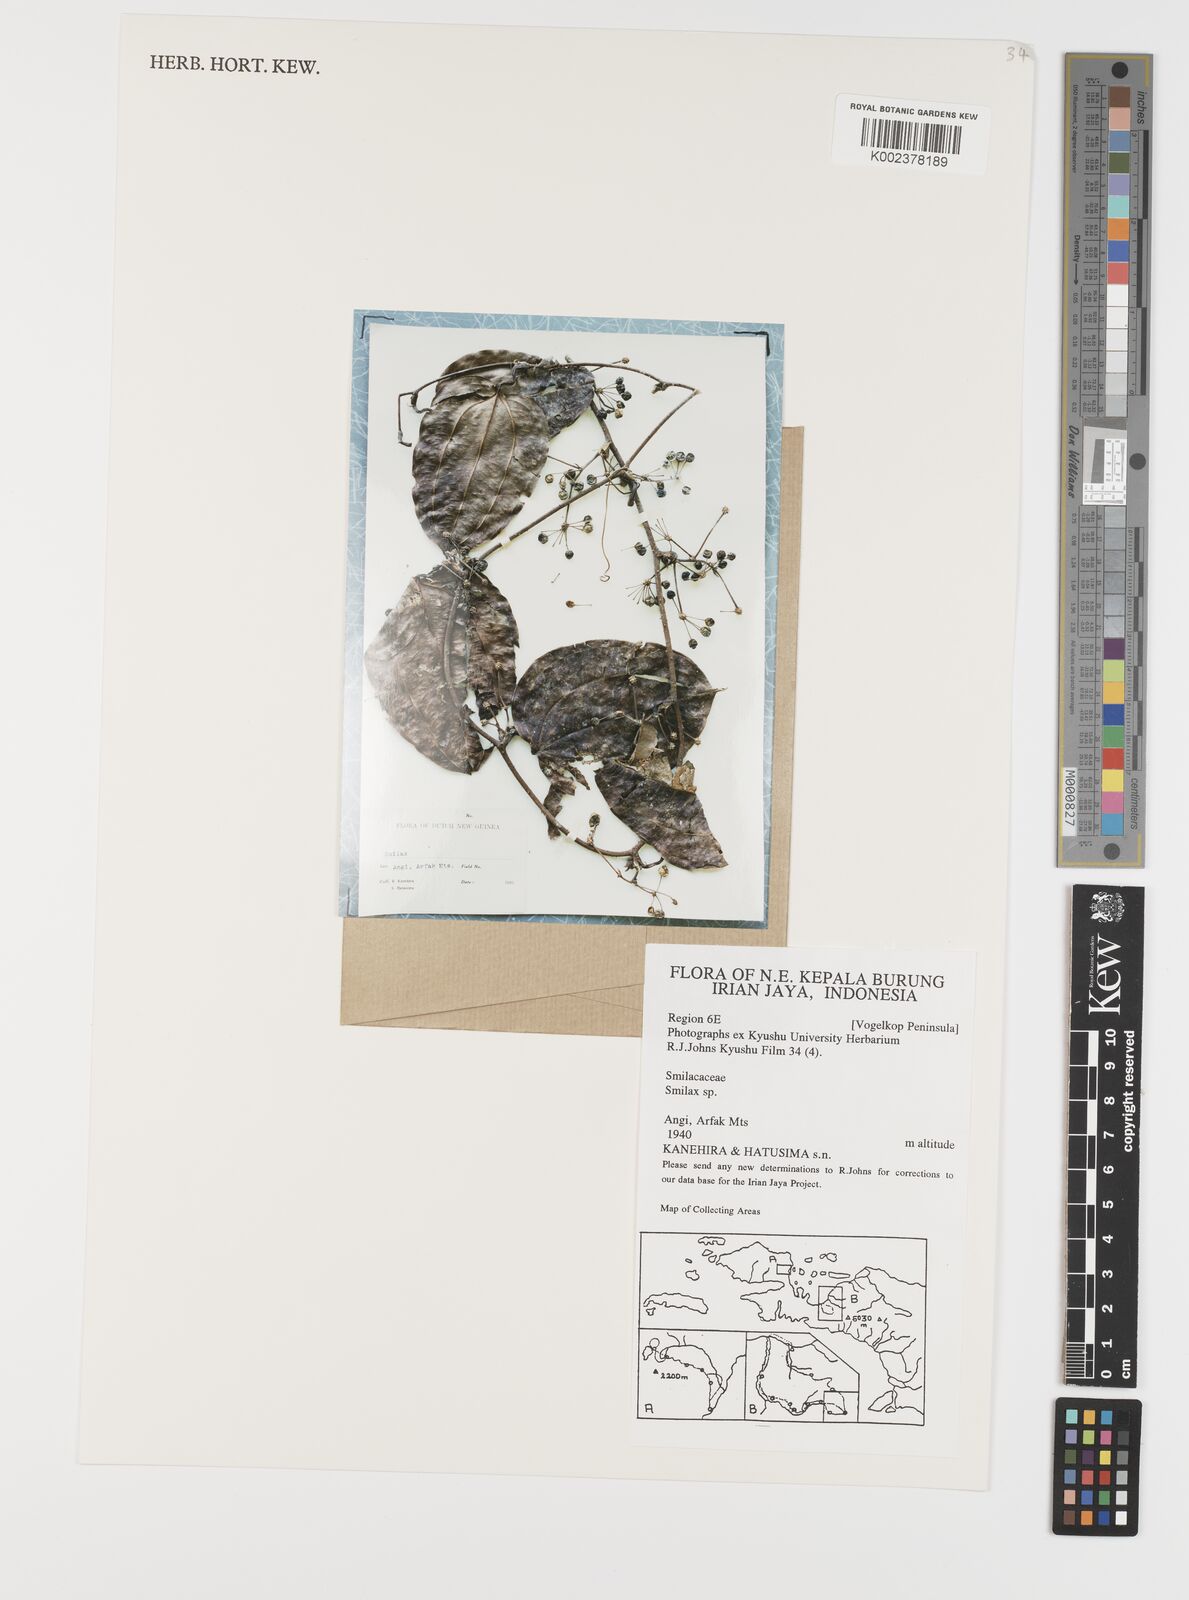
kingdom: Plantae
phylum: Tracheophyta
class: Liliopsida
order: Liliales
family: Smilacaceae
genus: Smilax
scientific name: Smilax
